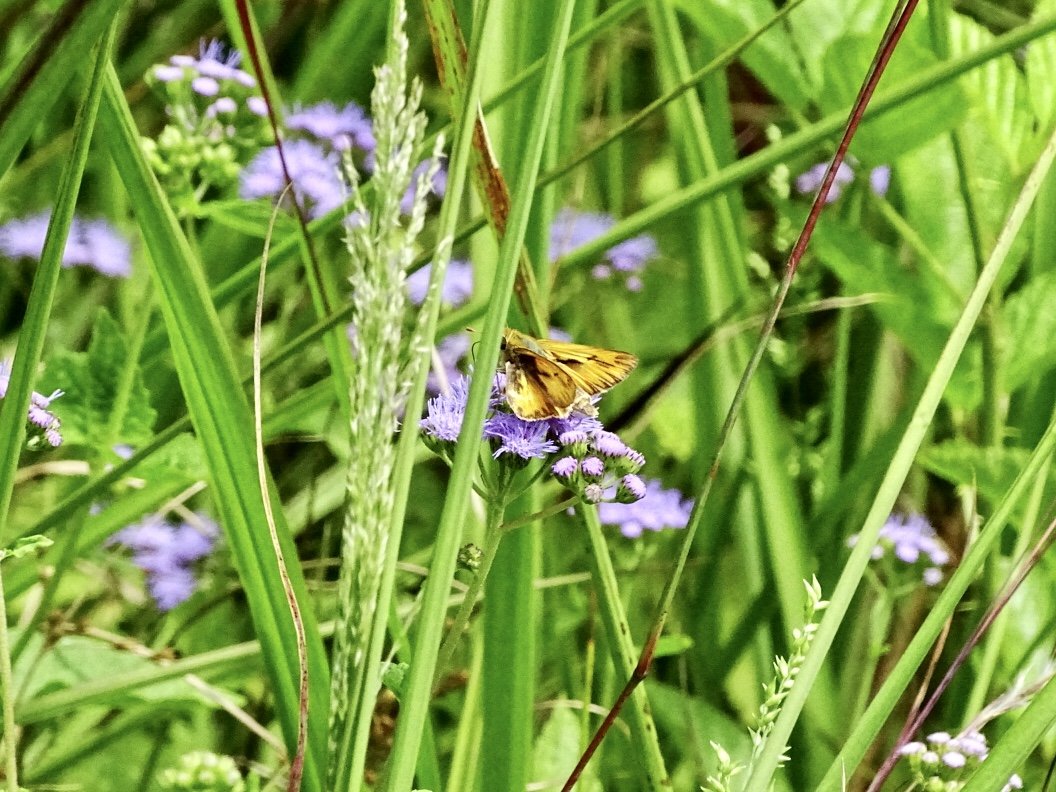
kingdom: Animalia
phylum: Arthropoda
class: Insecta
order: Lepidoptera
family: Hesperiidae
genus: Hylephila
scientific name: Hylephila phyleus
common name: Fiery Skipper
